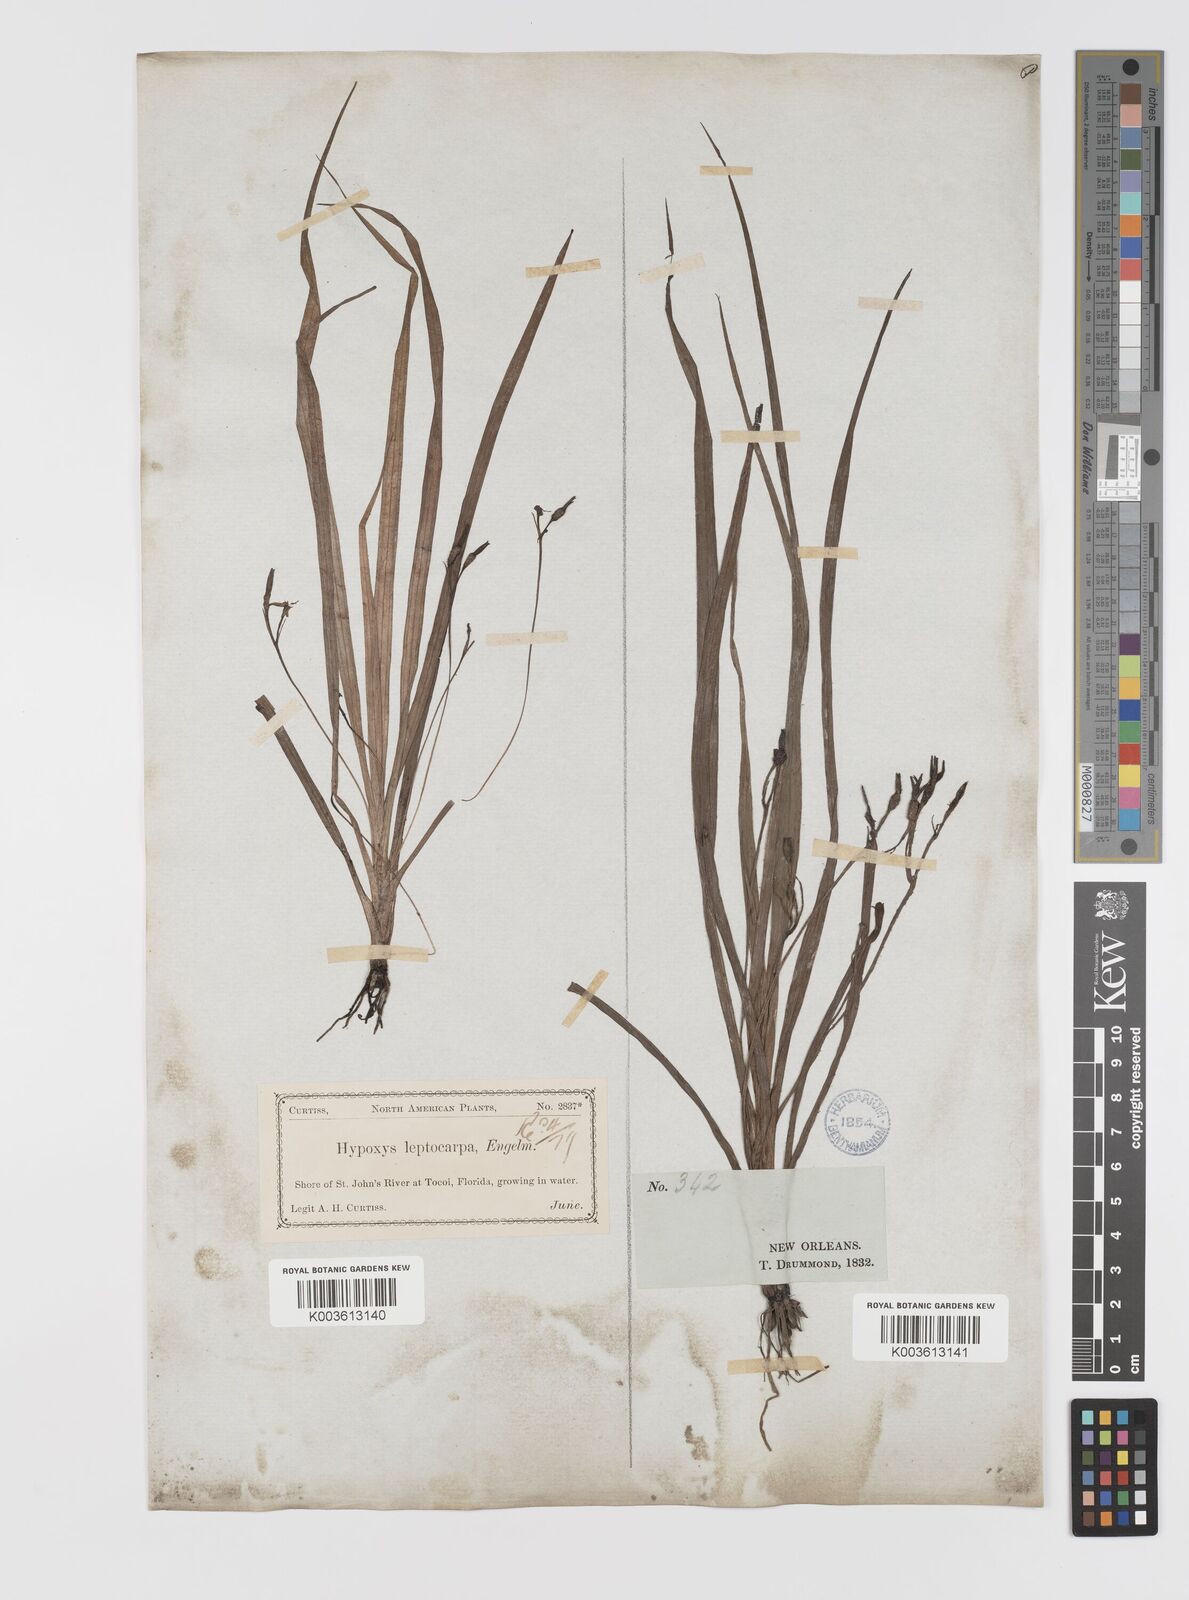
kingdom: Plantae
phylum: Tracheophyta
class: Liliopsida
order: Asparagales
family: Hypoxidaceae
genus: Hypoxis
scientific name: Hypoxis curtissii
